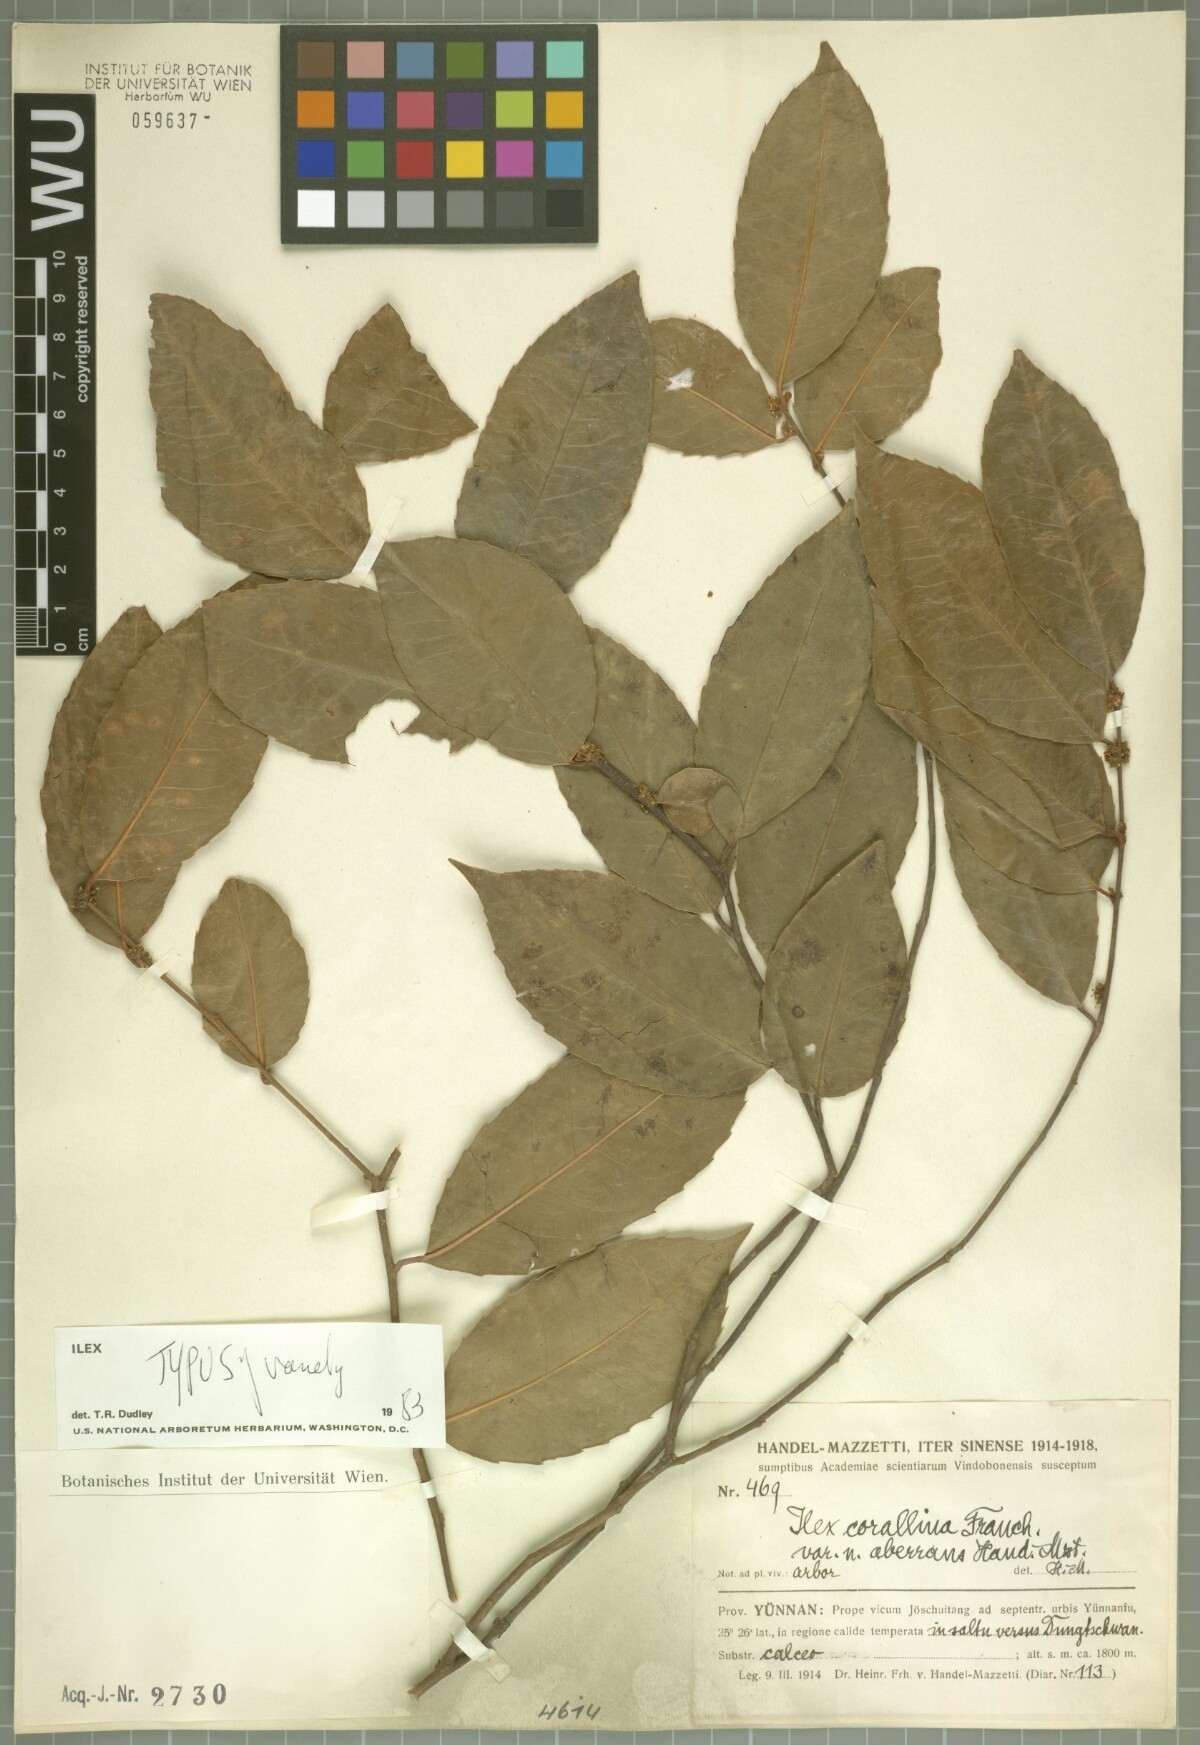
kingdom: Plantae
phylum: Tracheophyta
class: Magnoliopsida
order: Aquifoliales
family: Aquifoliaceae
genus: Ilex
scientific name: Ilex corallina
